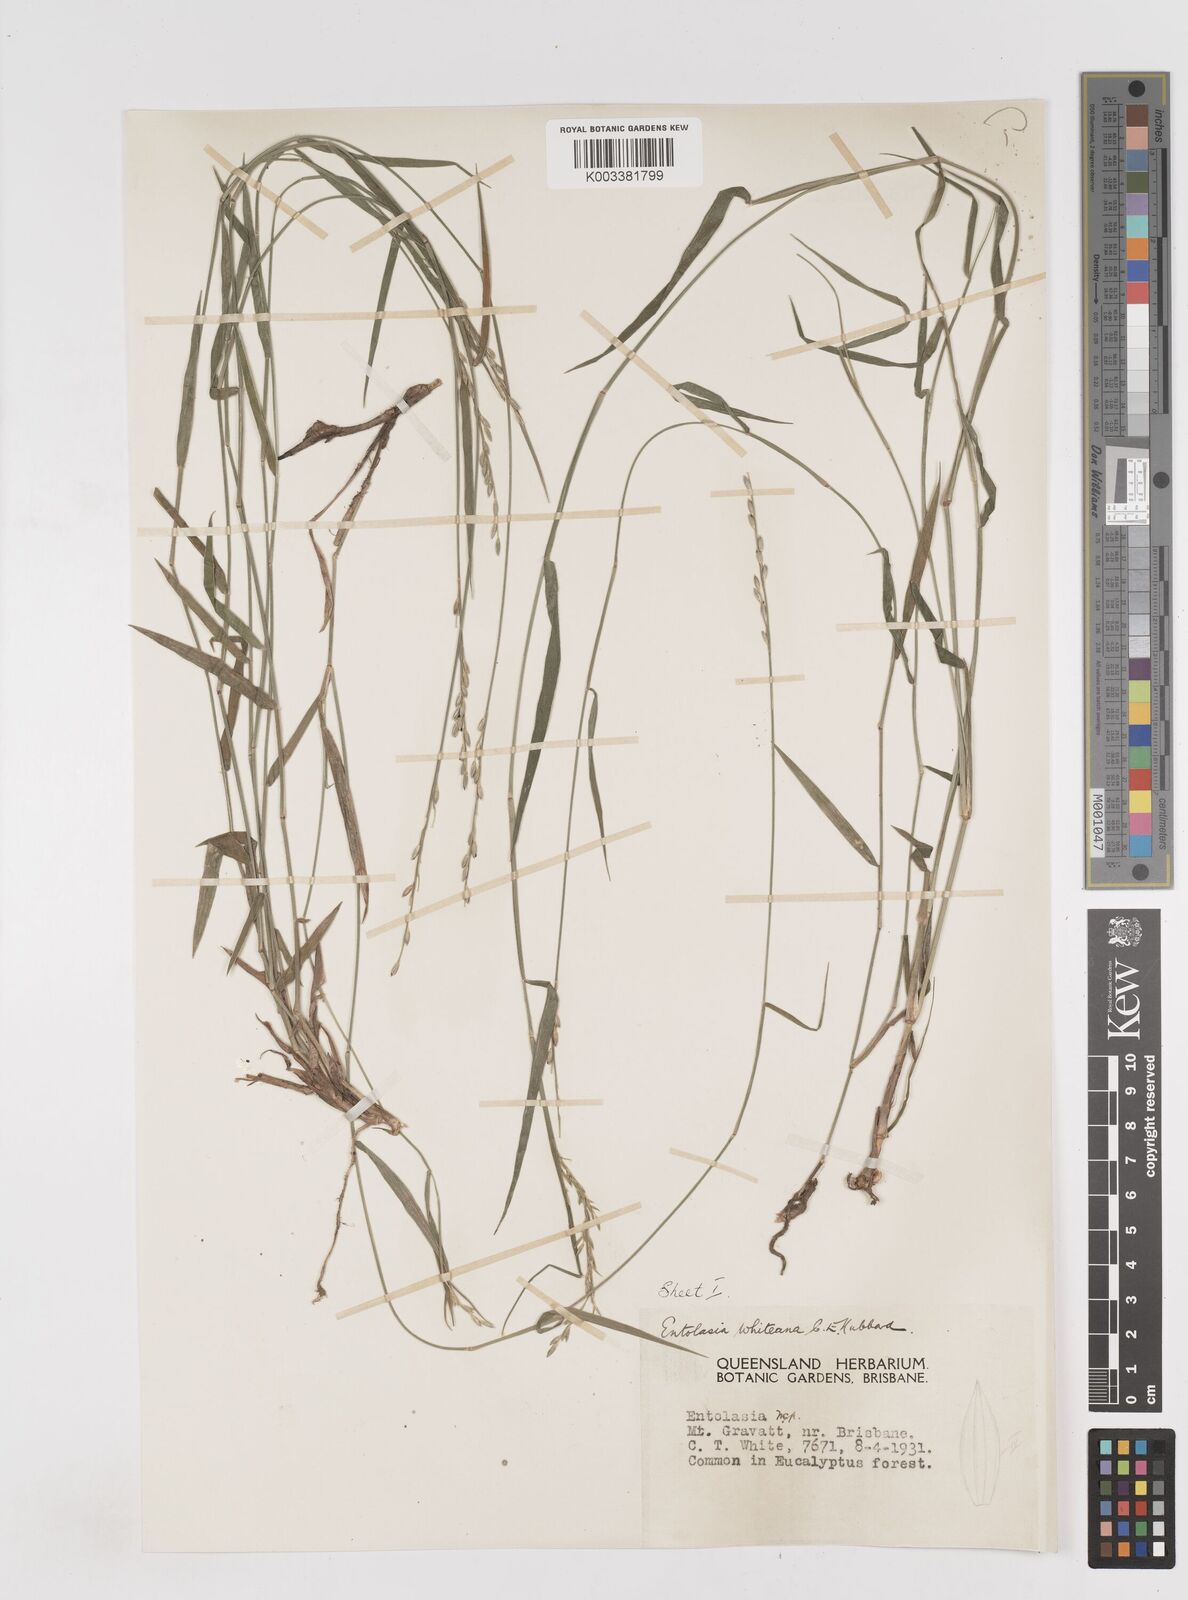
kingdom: Plantae
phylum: Tracheophyta
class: Liliopsida
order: Poales
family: Poaceae
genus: Entolasia
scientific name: Entolasia whiteana
